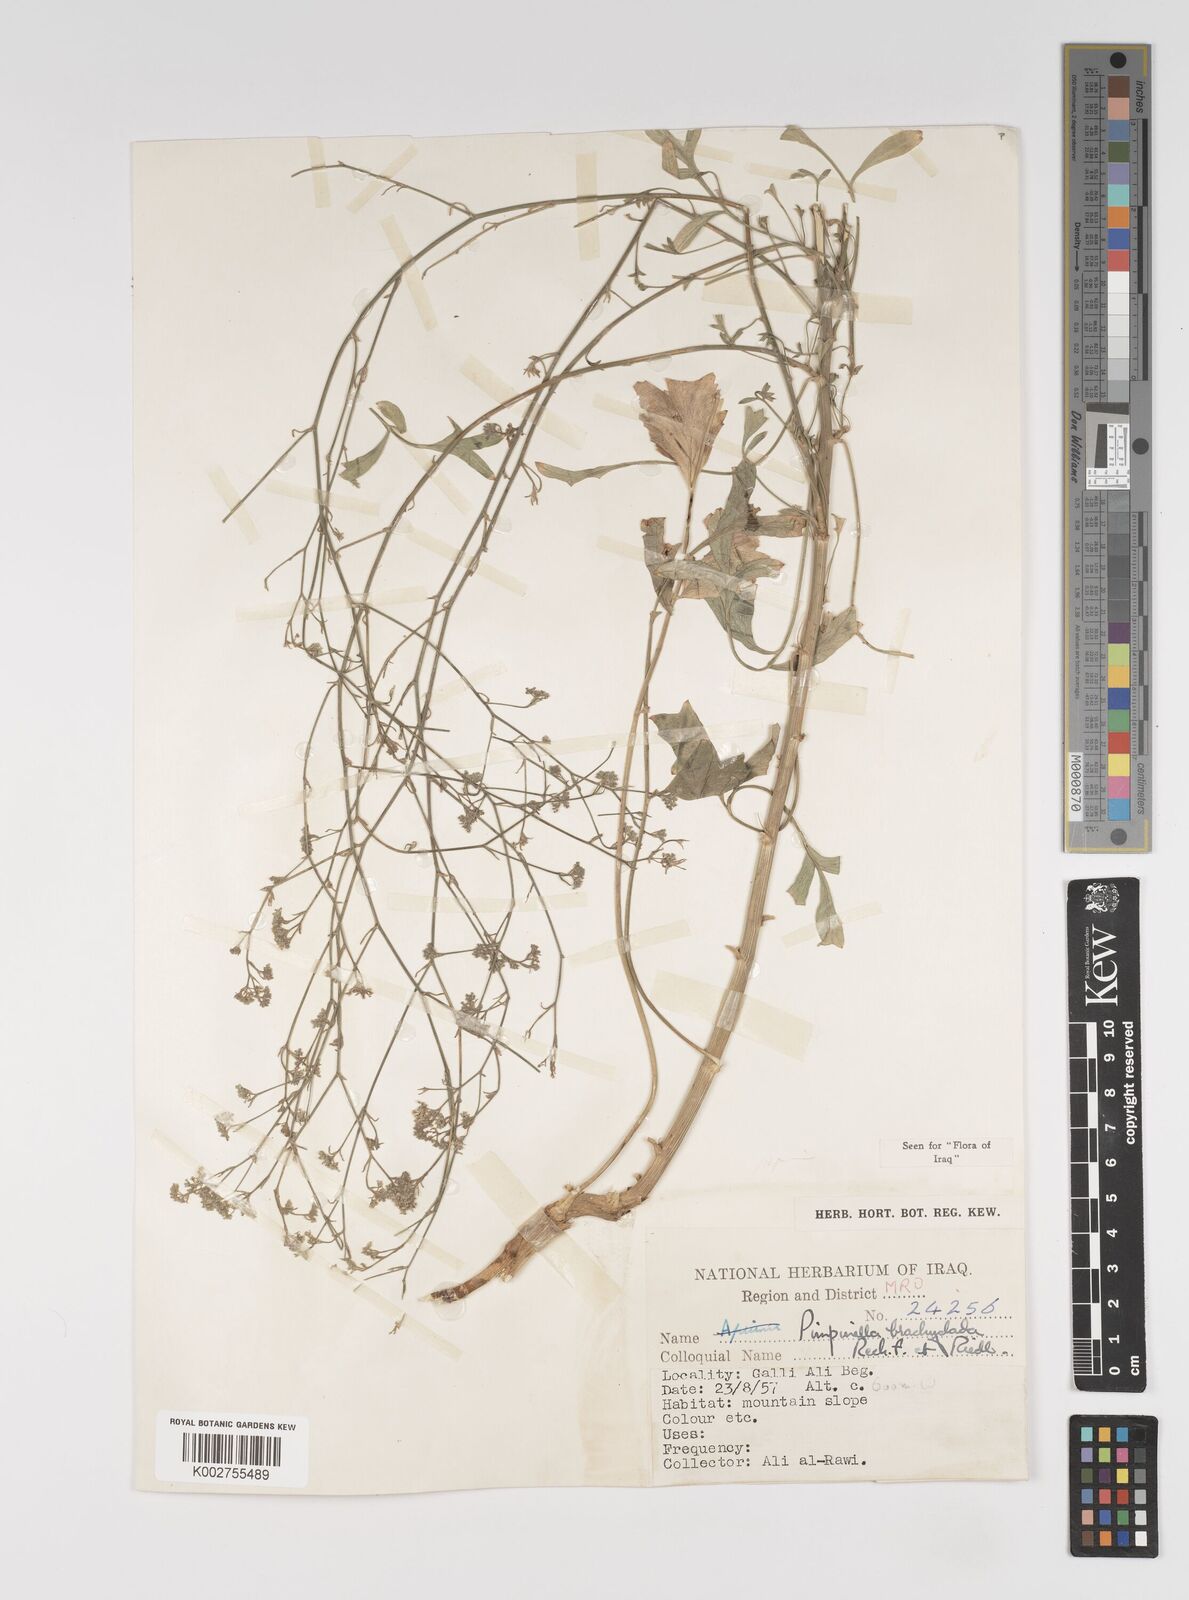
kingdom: Plantae
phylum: Tracheophyta
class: Magnoliopsida
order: Apiales
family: Apiaceae
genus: Pimpinella
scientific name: Pimpinella brachyclada
